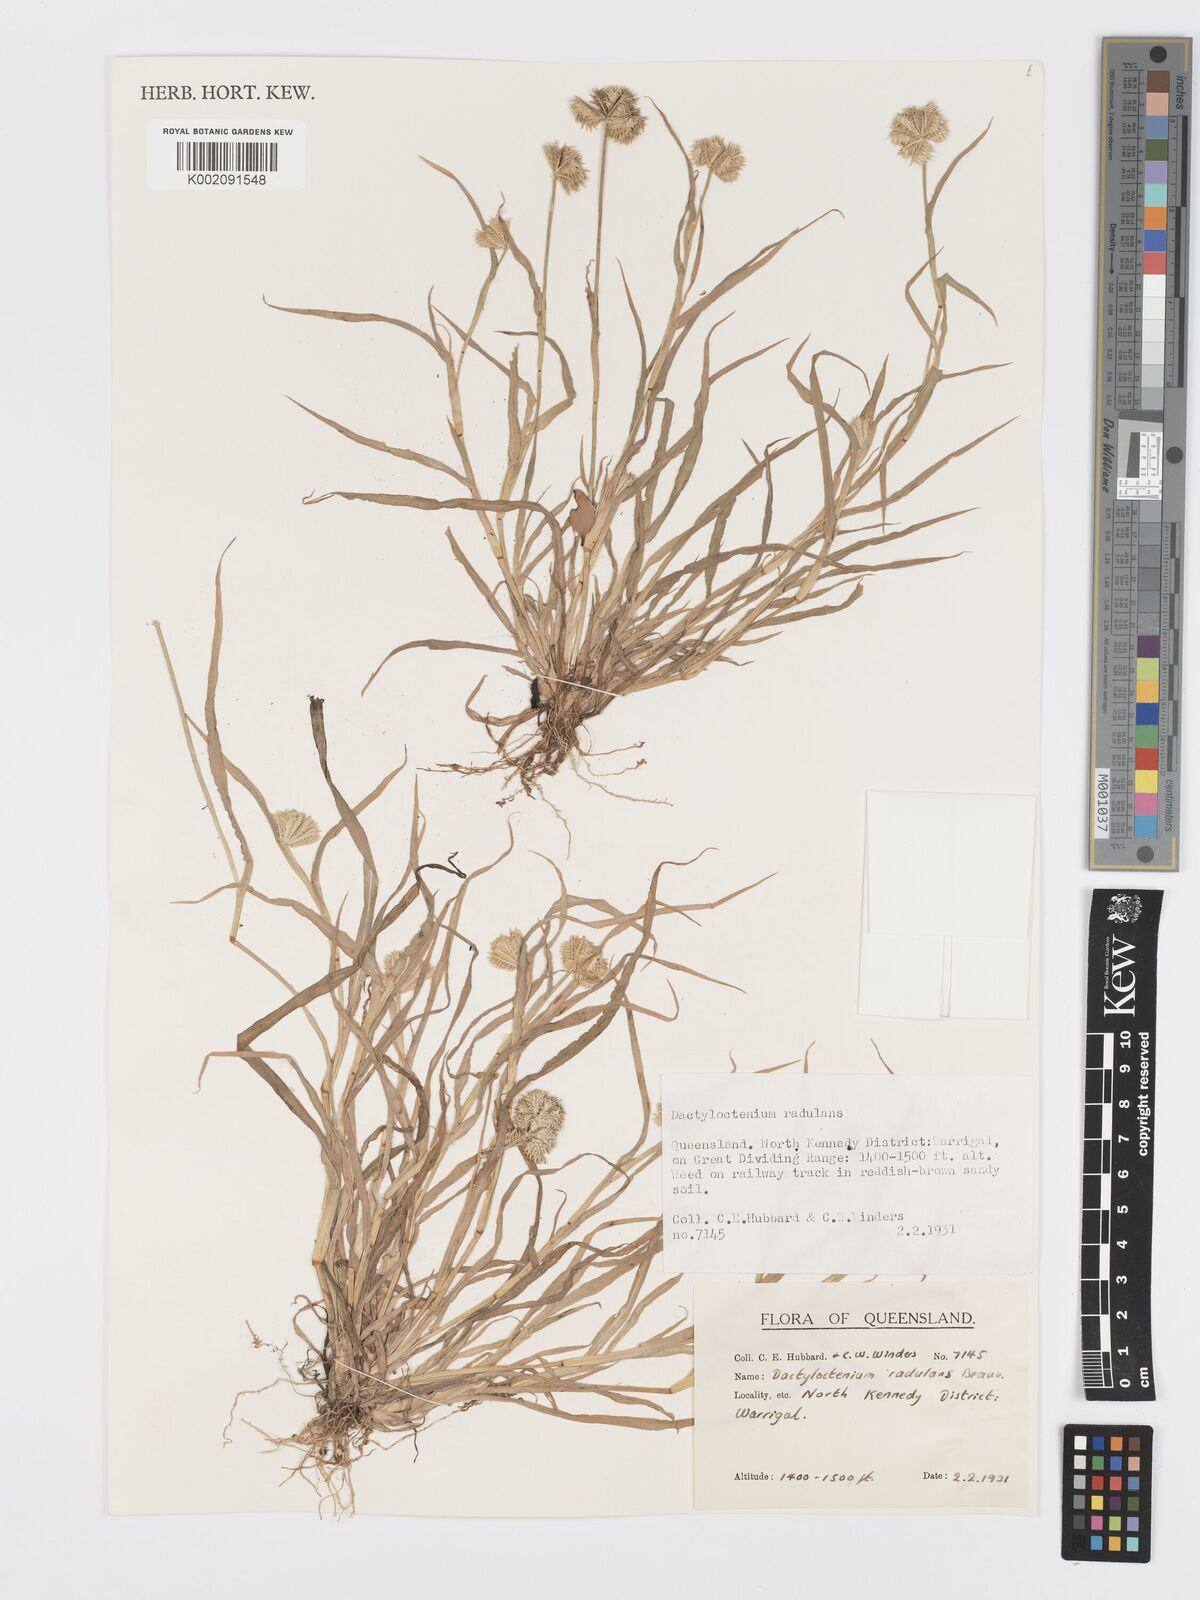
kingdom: Plantae
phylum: Tracheophyta
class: Liliopsida
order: Poales
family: Poaceae
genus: Dactyloctenium
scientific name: Dactyloctenium radulans
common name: Button-grass
